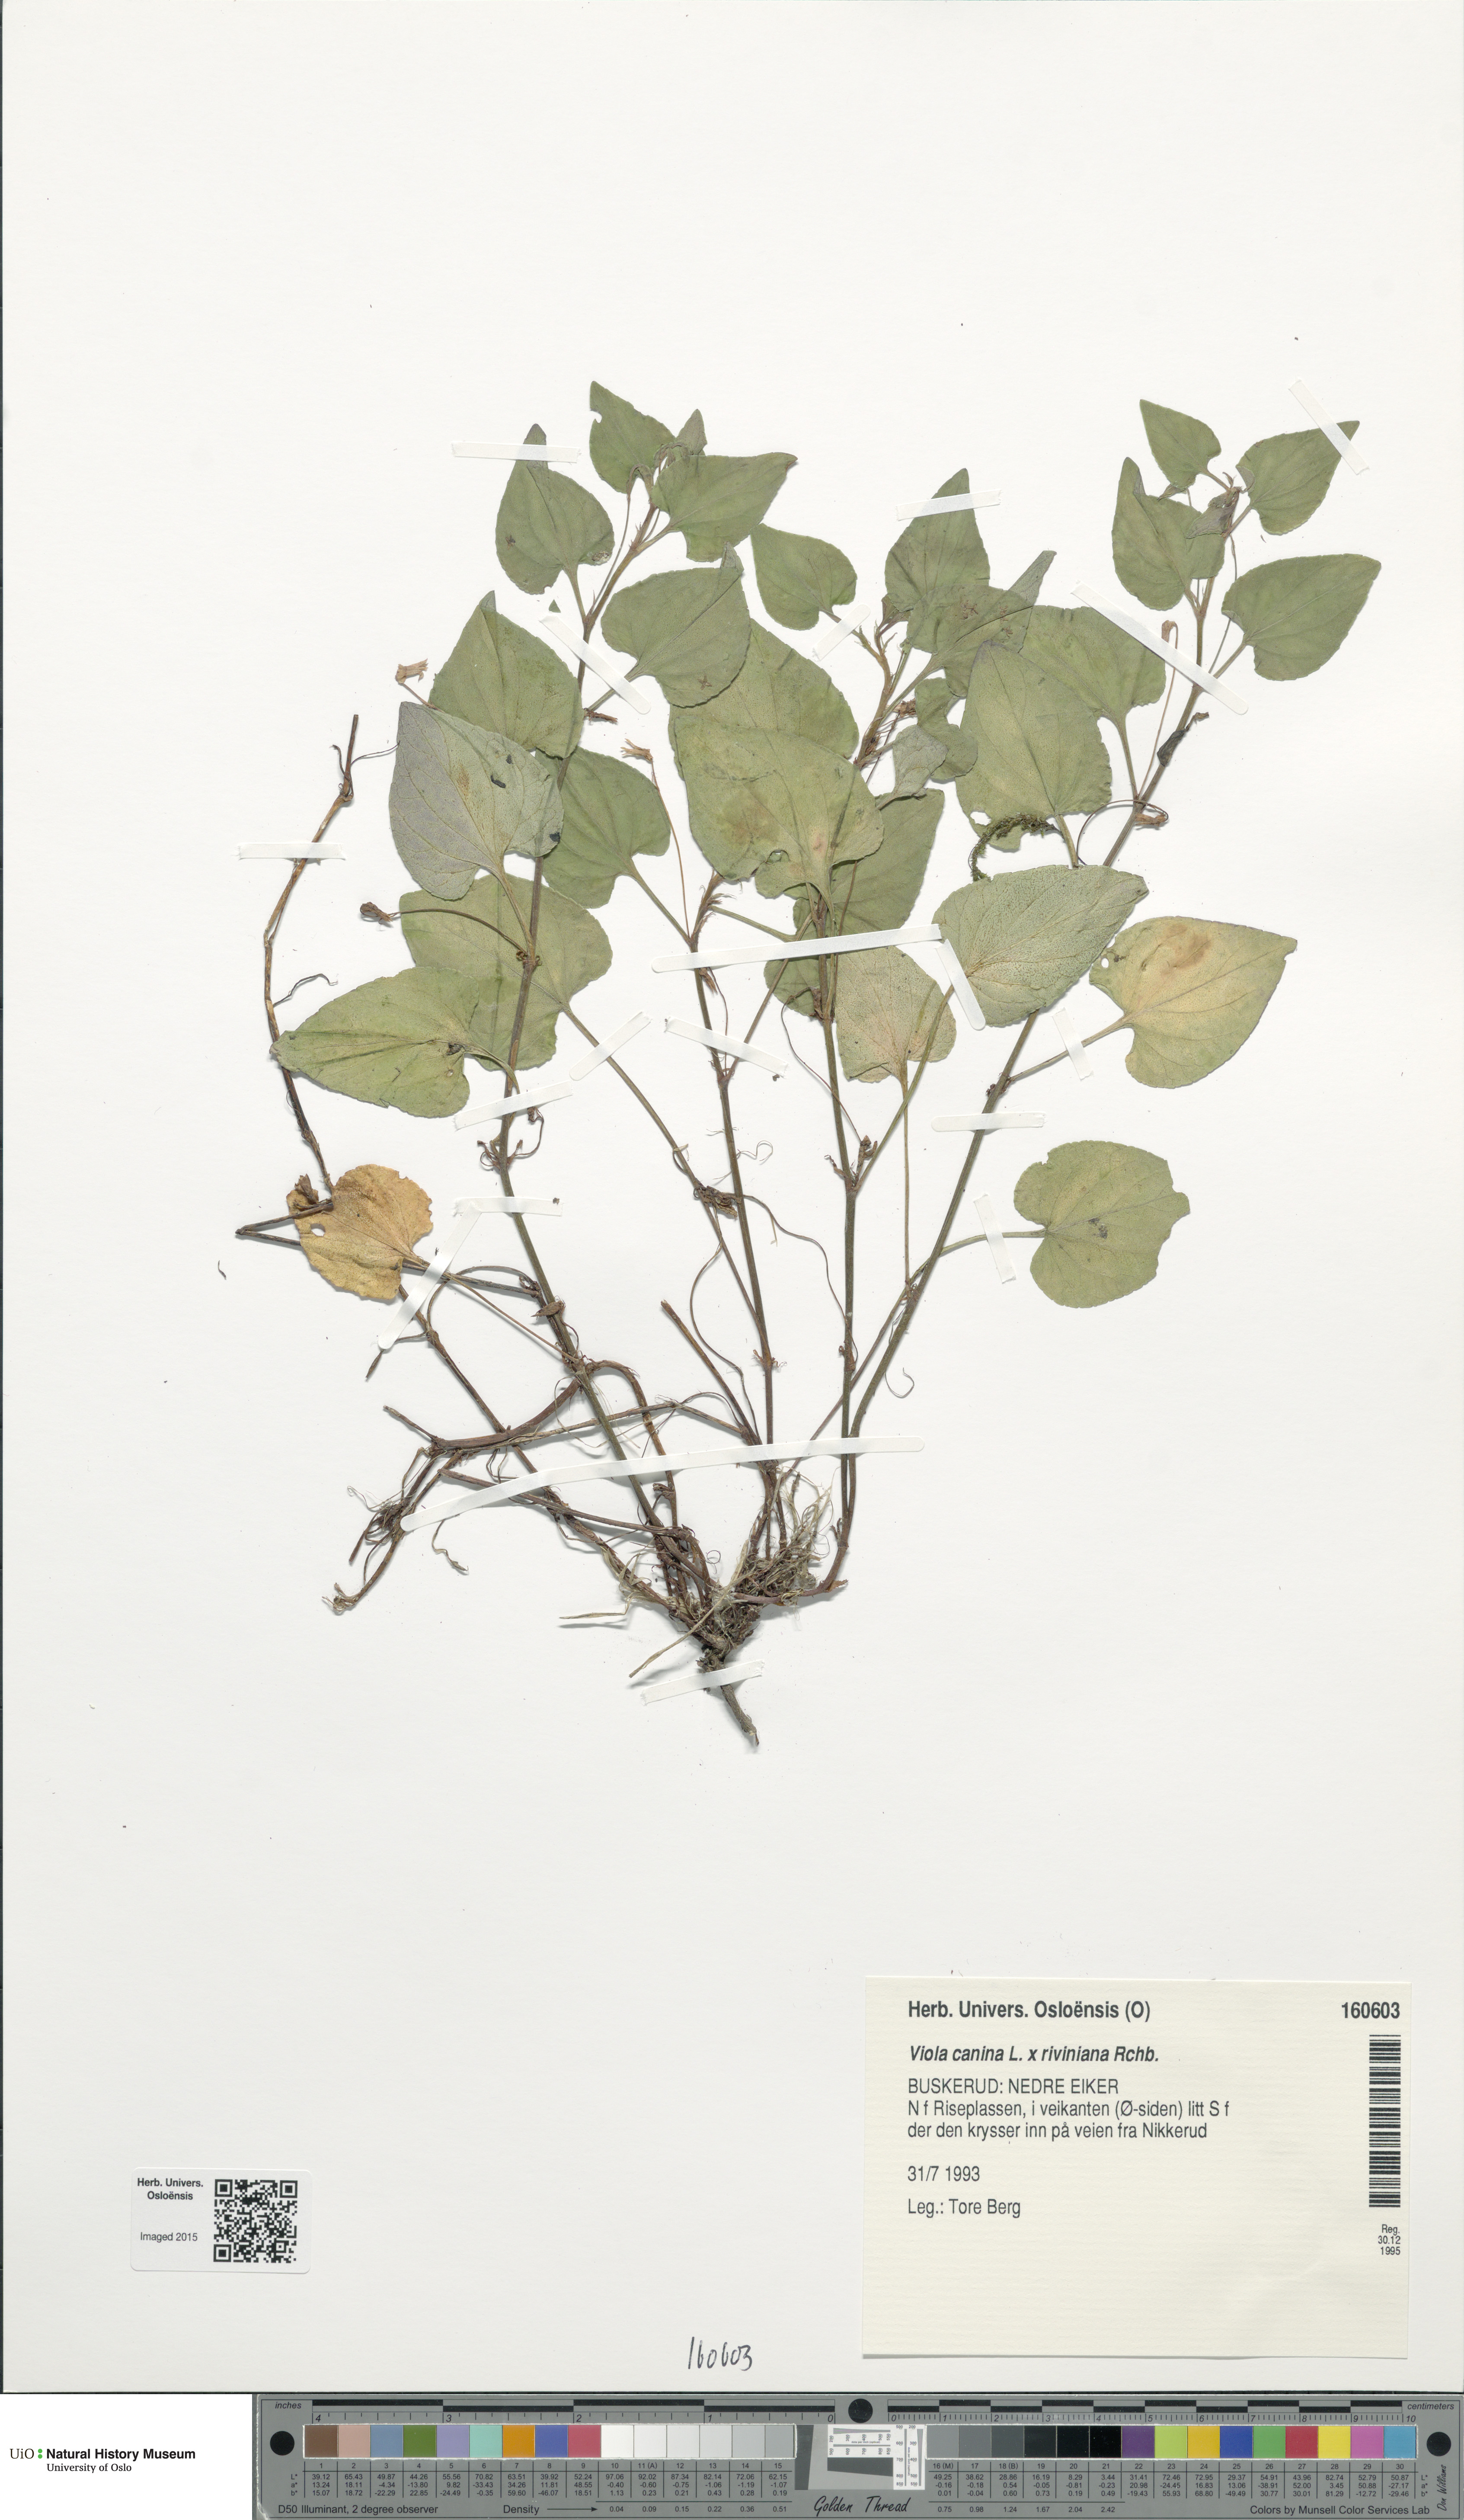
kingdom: Plantae
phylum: Tracheophyta
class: Magnoliopsida
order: Malpighiales
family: Violaceae
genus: Viola
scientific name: Viola
